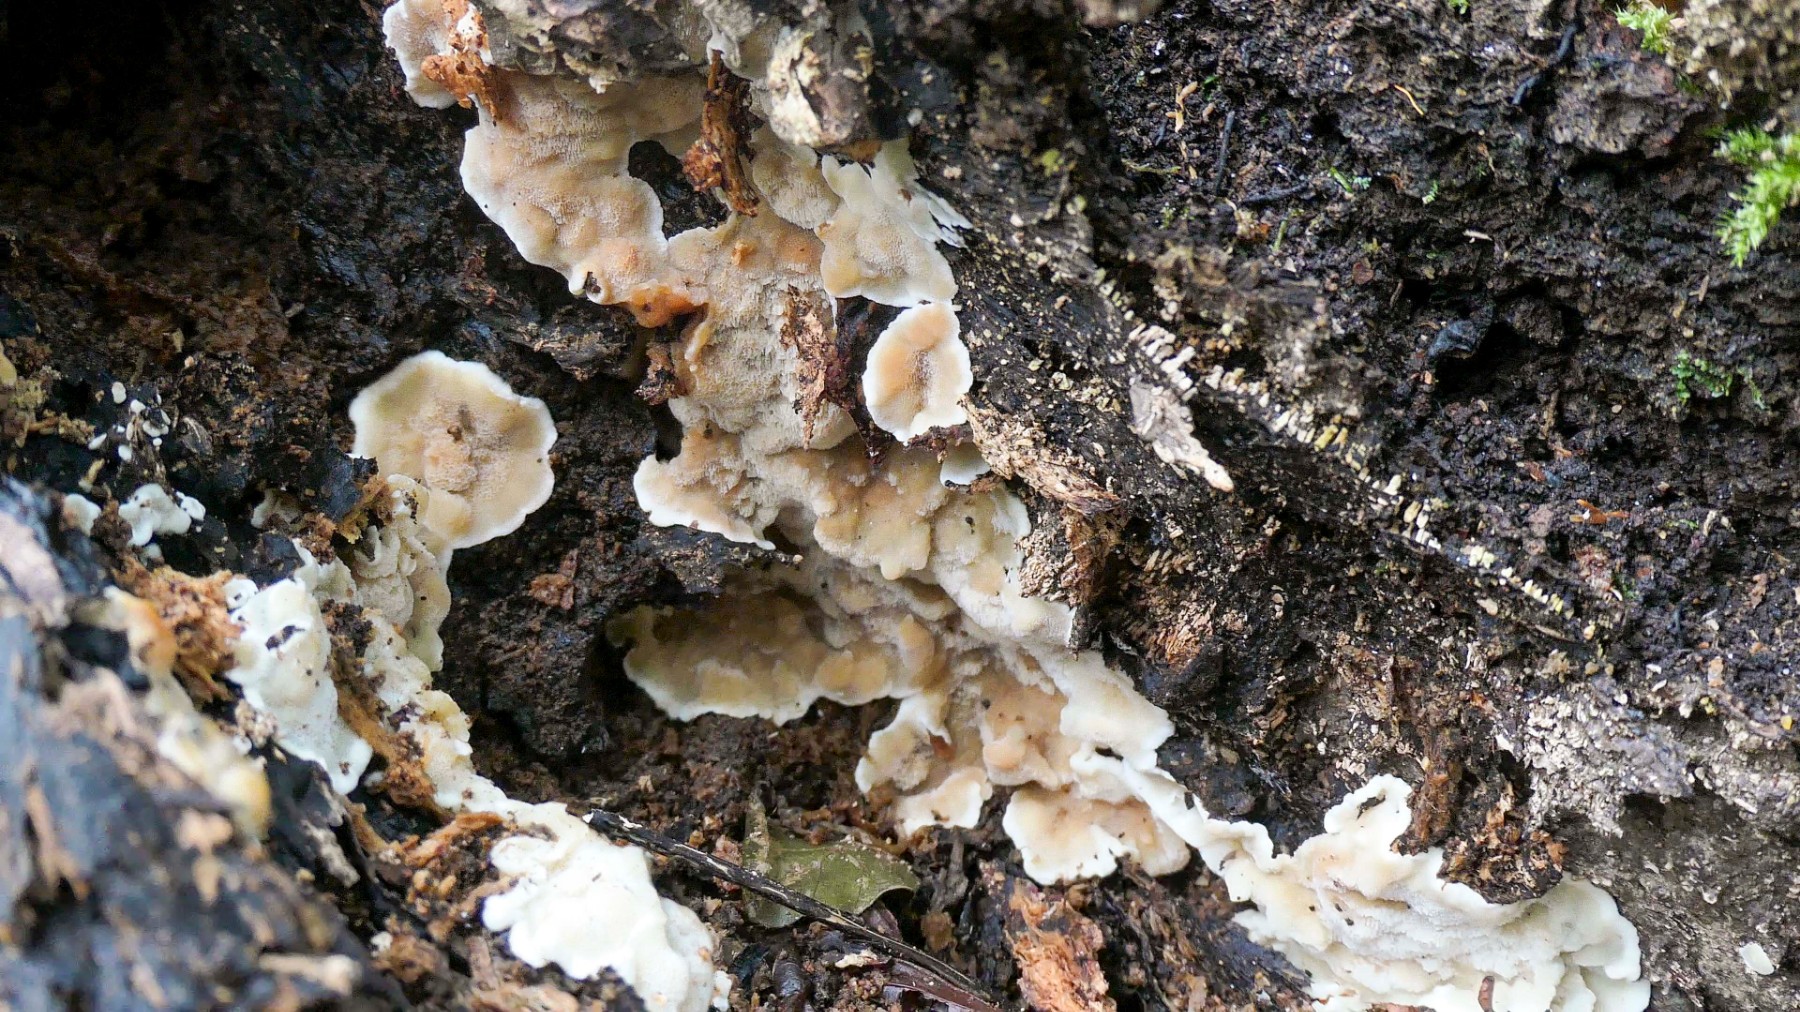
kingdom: Fungi
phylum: Basidiomycota
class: Agaricomycetes
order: Polyporales
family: Meripilaceae
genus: Rigidoporus
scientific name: Rigidoporus sanguinolentus
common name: blod-skorpeporesvamp
